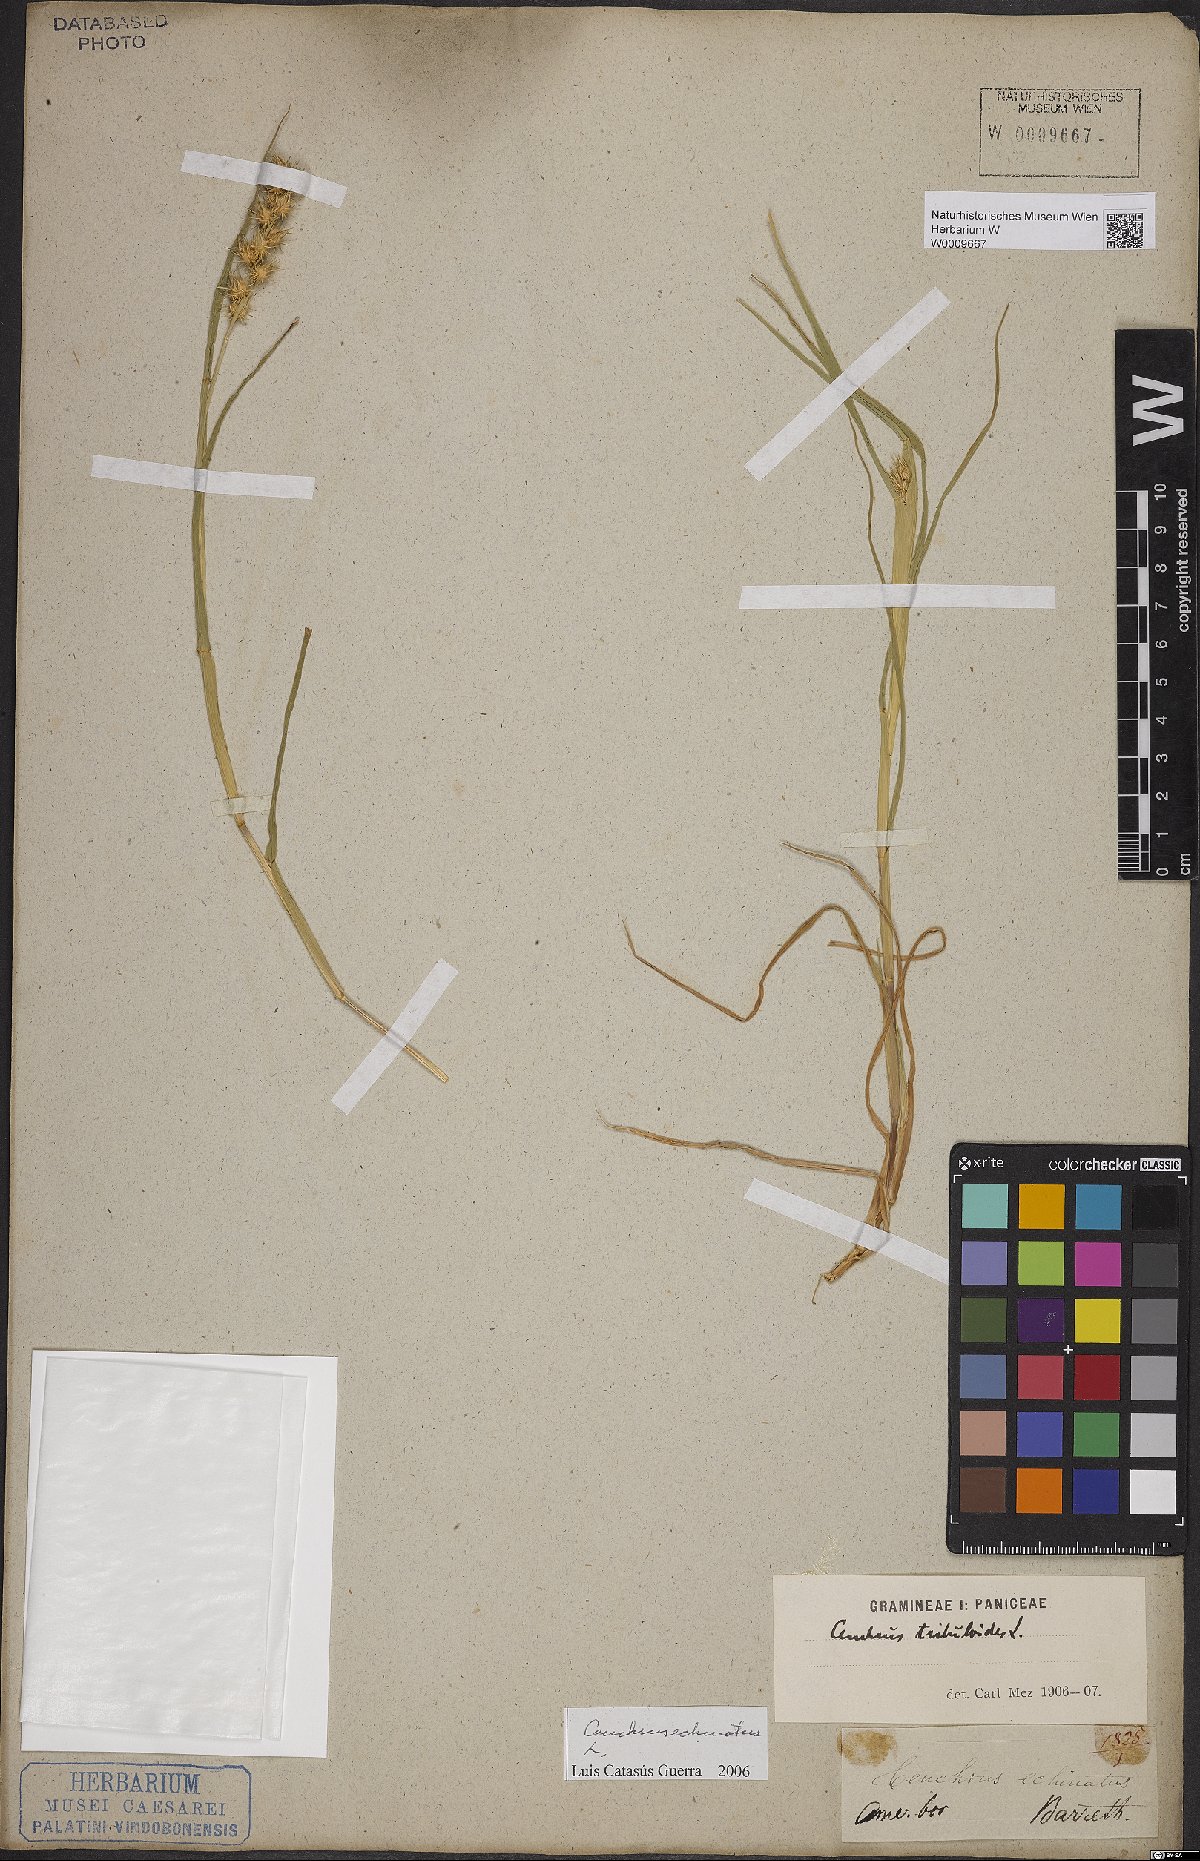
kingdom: Plantae
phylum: Tracheophyta
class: Liliopsida
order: Poales
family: Poaceae
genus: Cenchrus
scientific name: Cenchrus echinatus
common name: Southern sandbur
